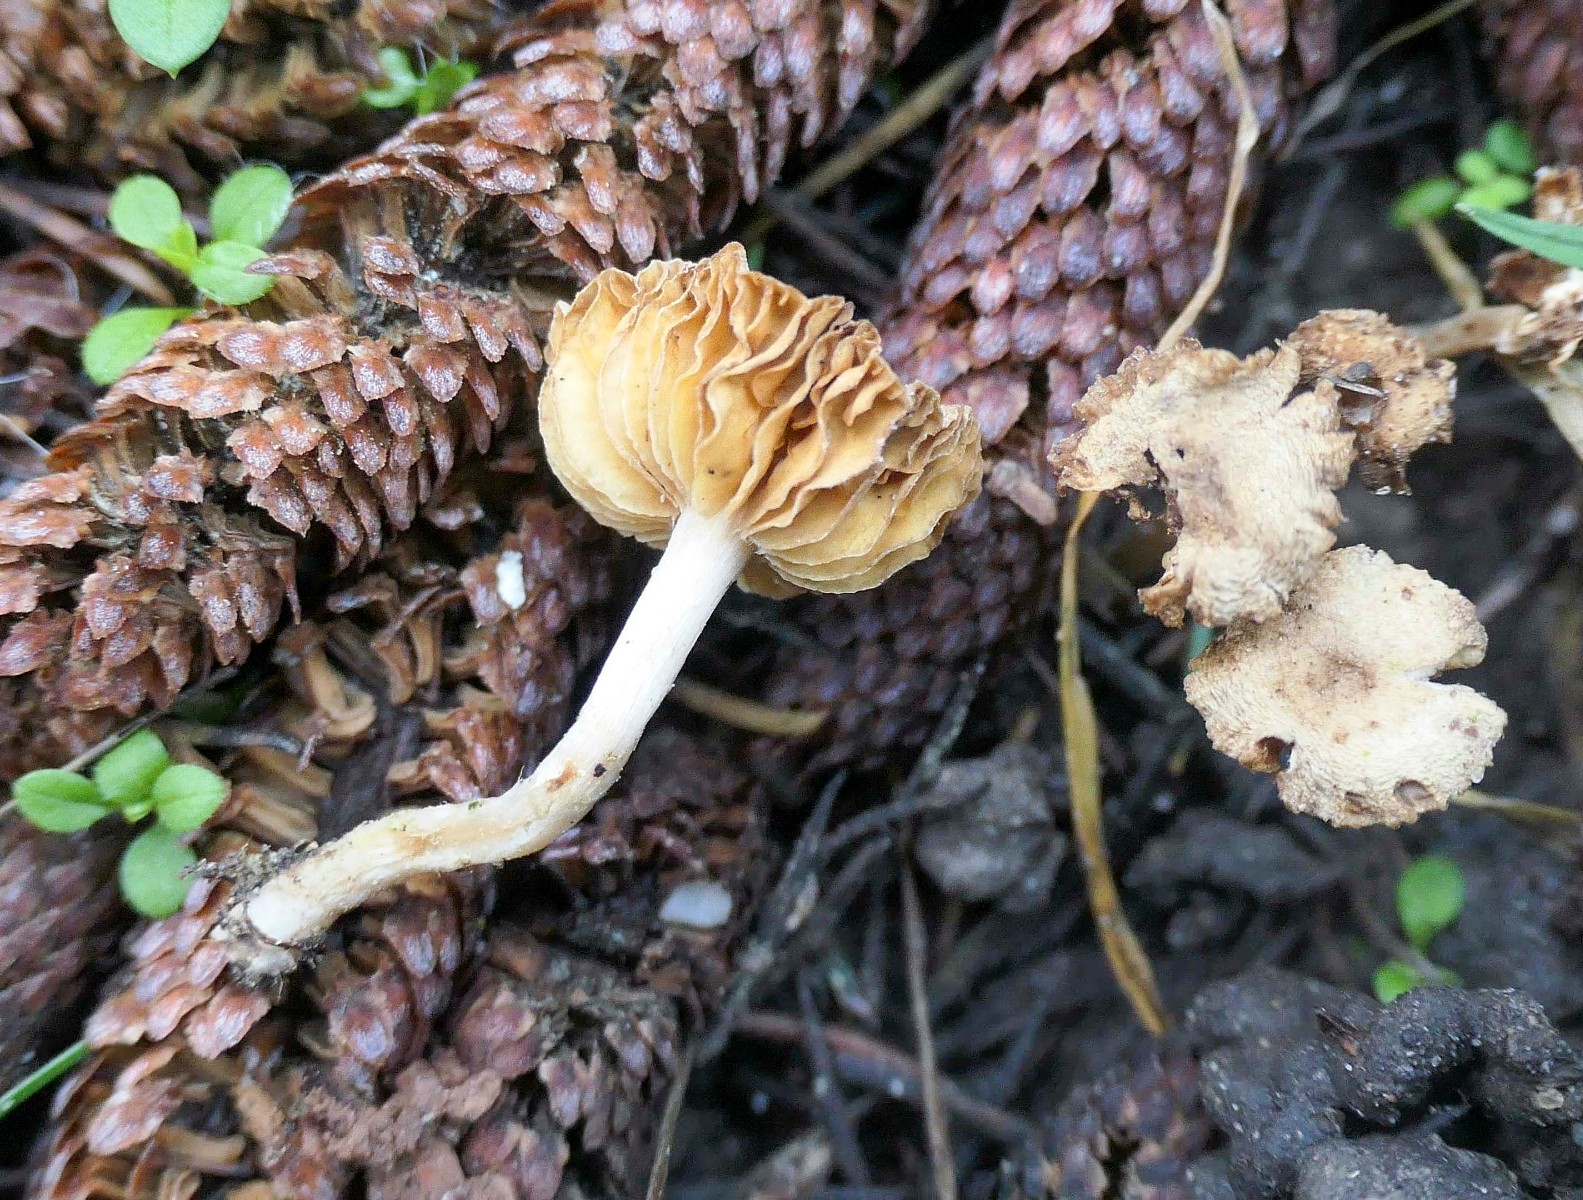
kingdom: Fungi
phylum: Basidiomycota
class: Agaricomycetes
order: Agaricales
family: Tubariaceae
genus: Tubaria
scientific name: Tubaria dispersa
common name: tjørne-fnughat
